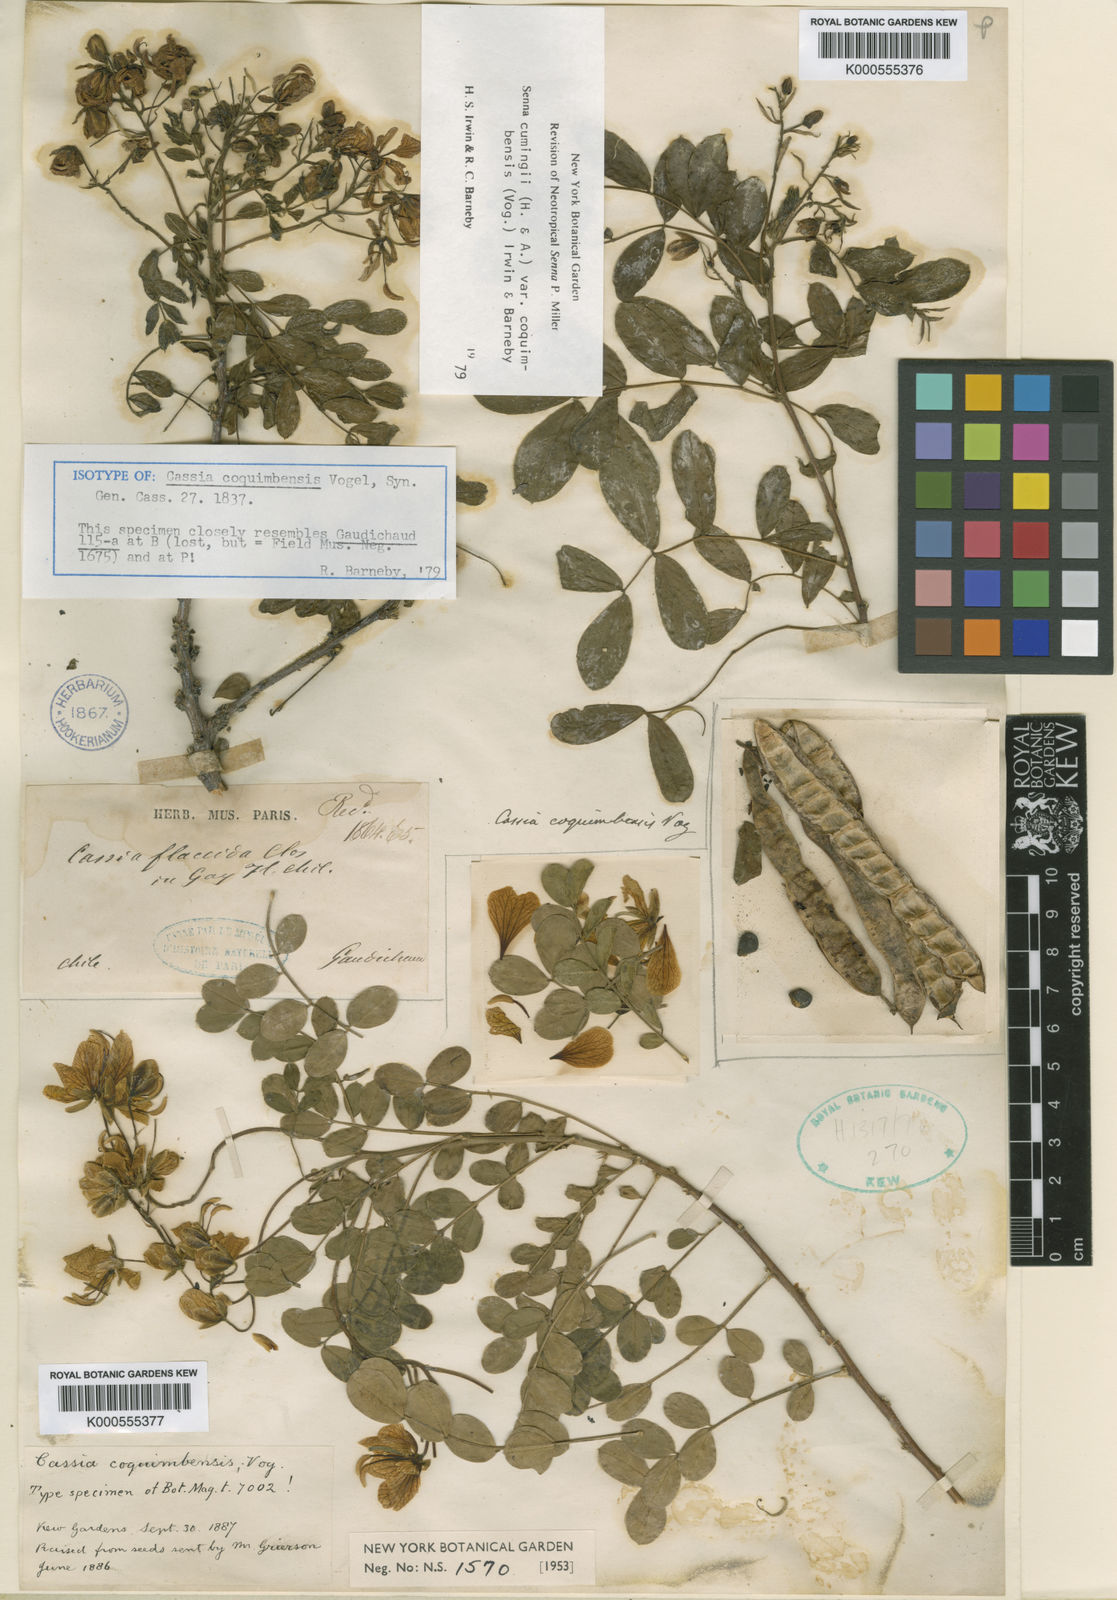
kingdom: Plantae
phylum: Tracheophyta
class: Magnoliopsida
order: Fabales
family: Fabaceae
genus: Senna
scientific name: Senna cumingii
